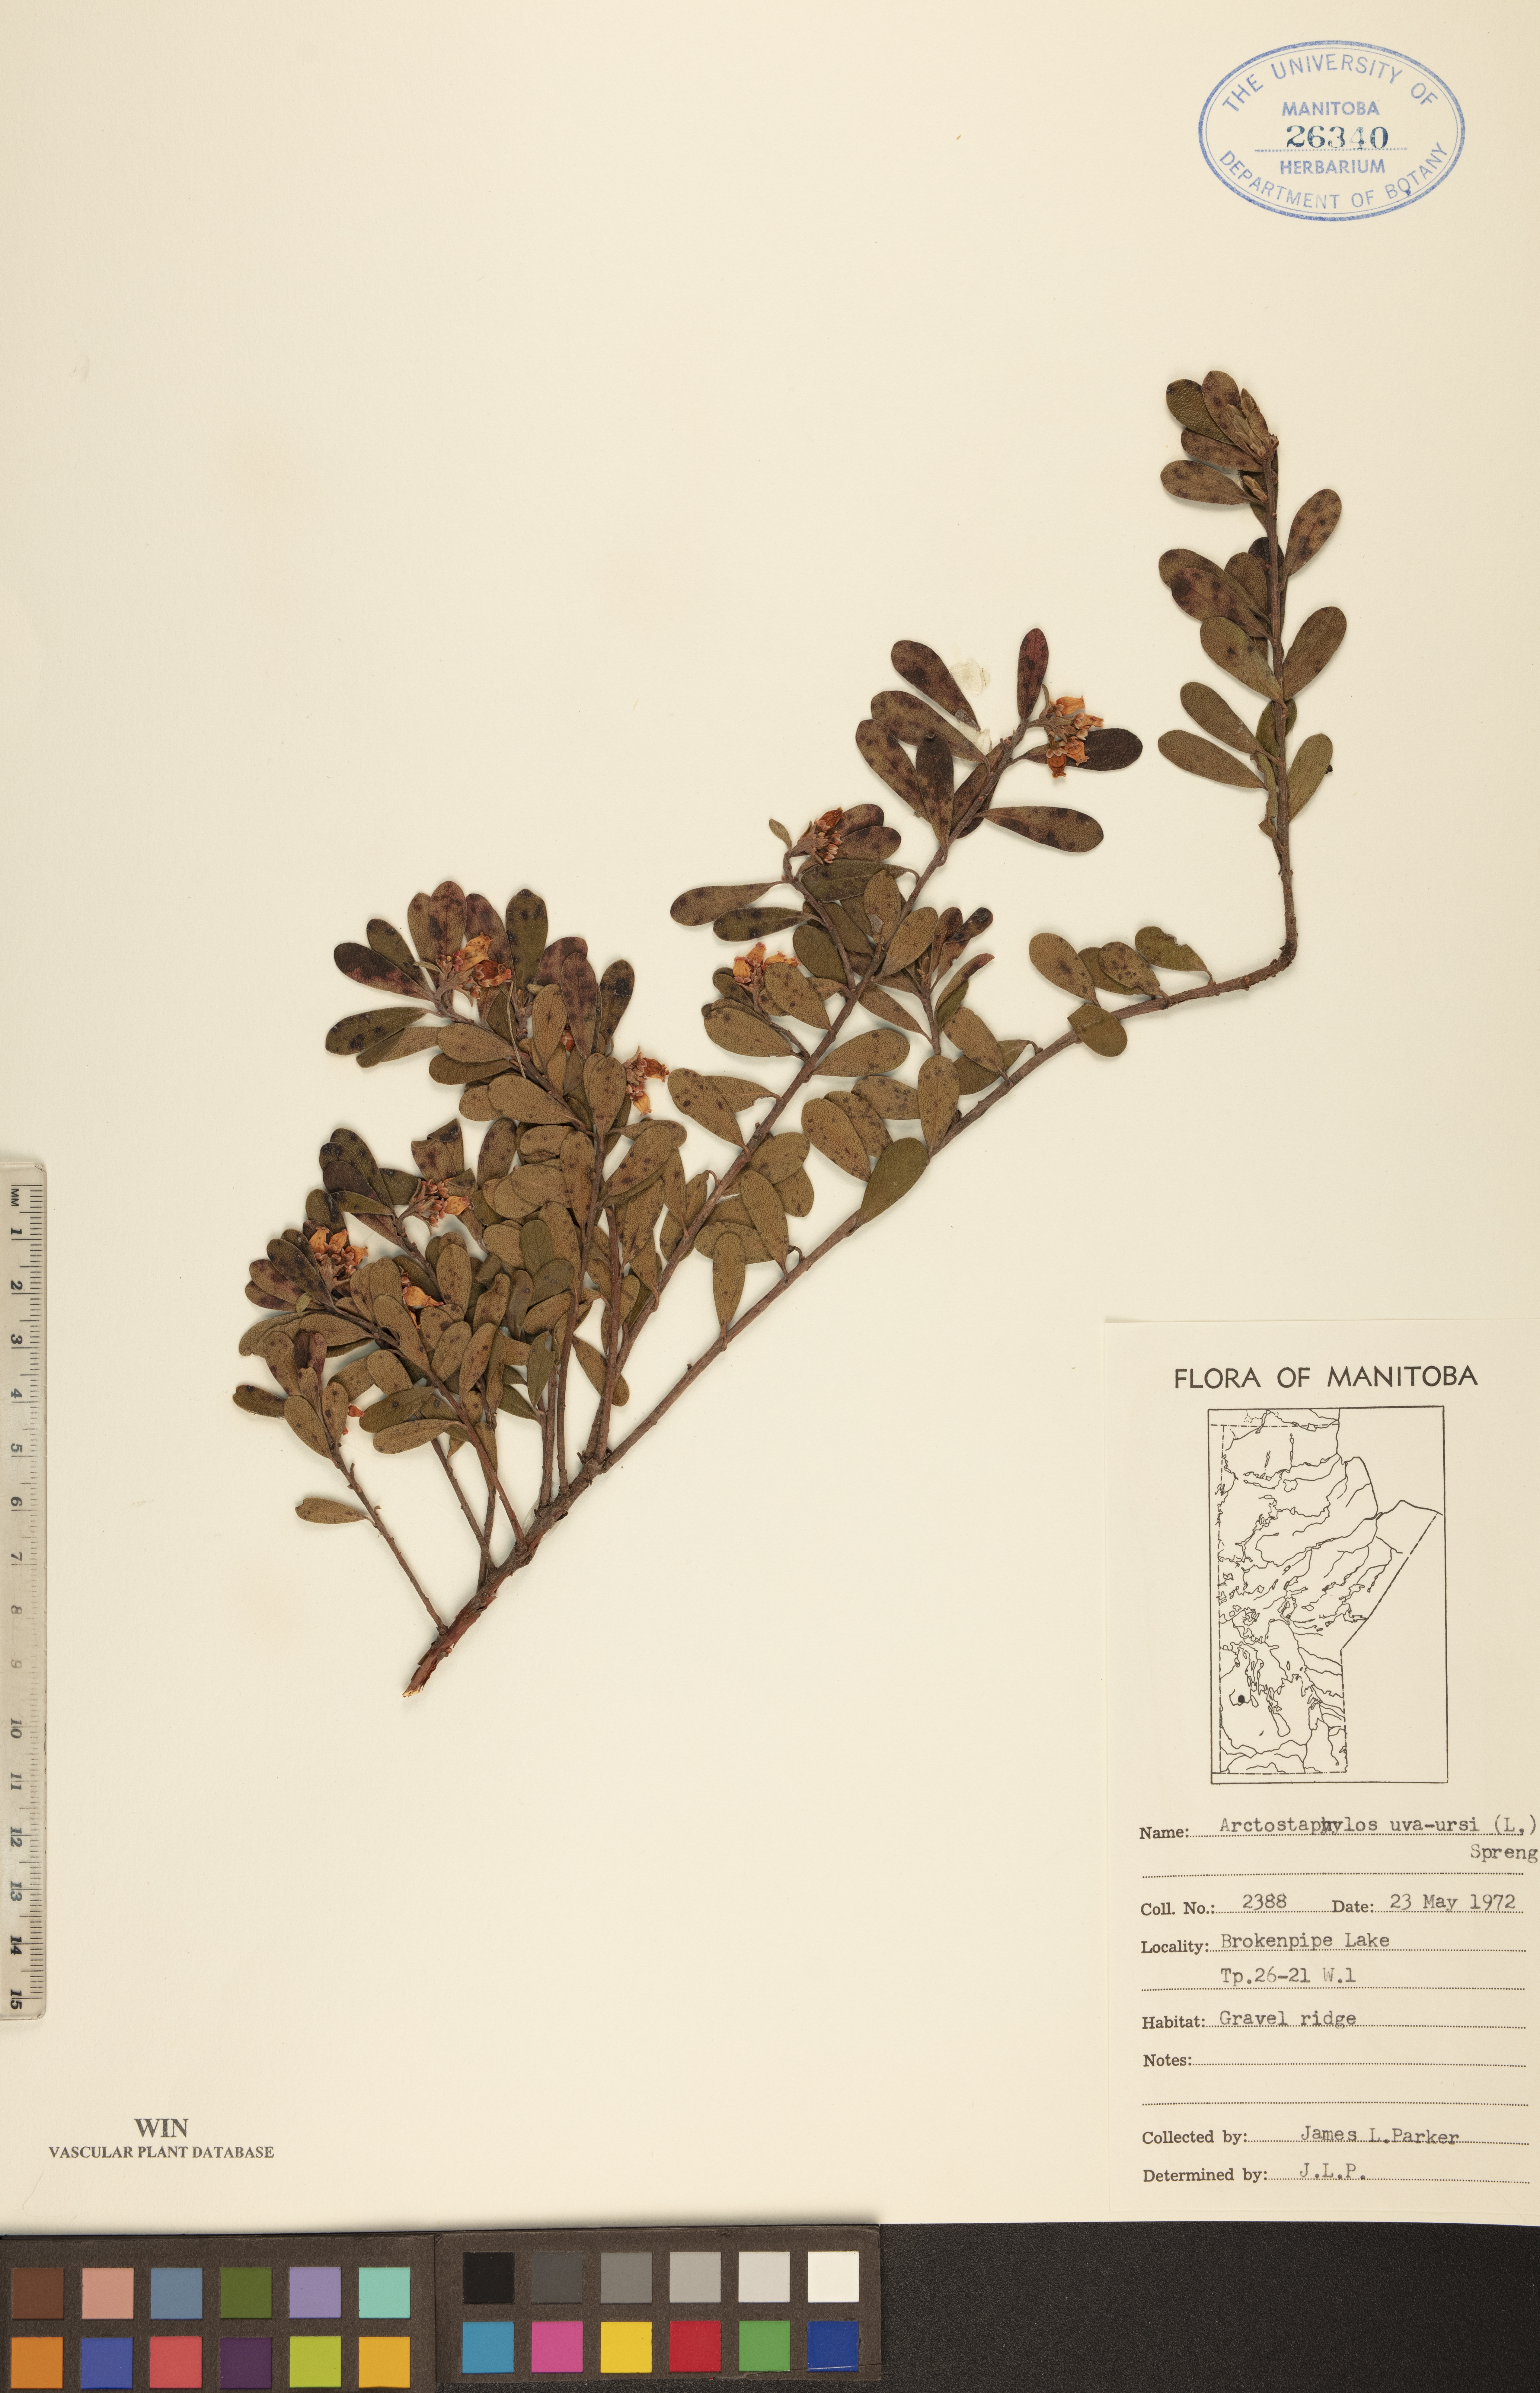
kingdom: Plantae
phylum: Tracheophyta
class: Magnoliopsida
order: Ericales
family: Ericaceae
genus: Arctostaphylos
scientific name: Arctostaphylos uva-ursi
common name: Bearberry
